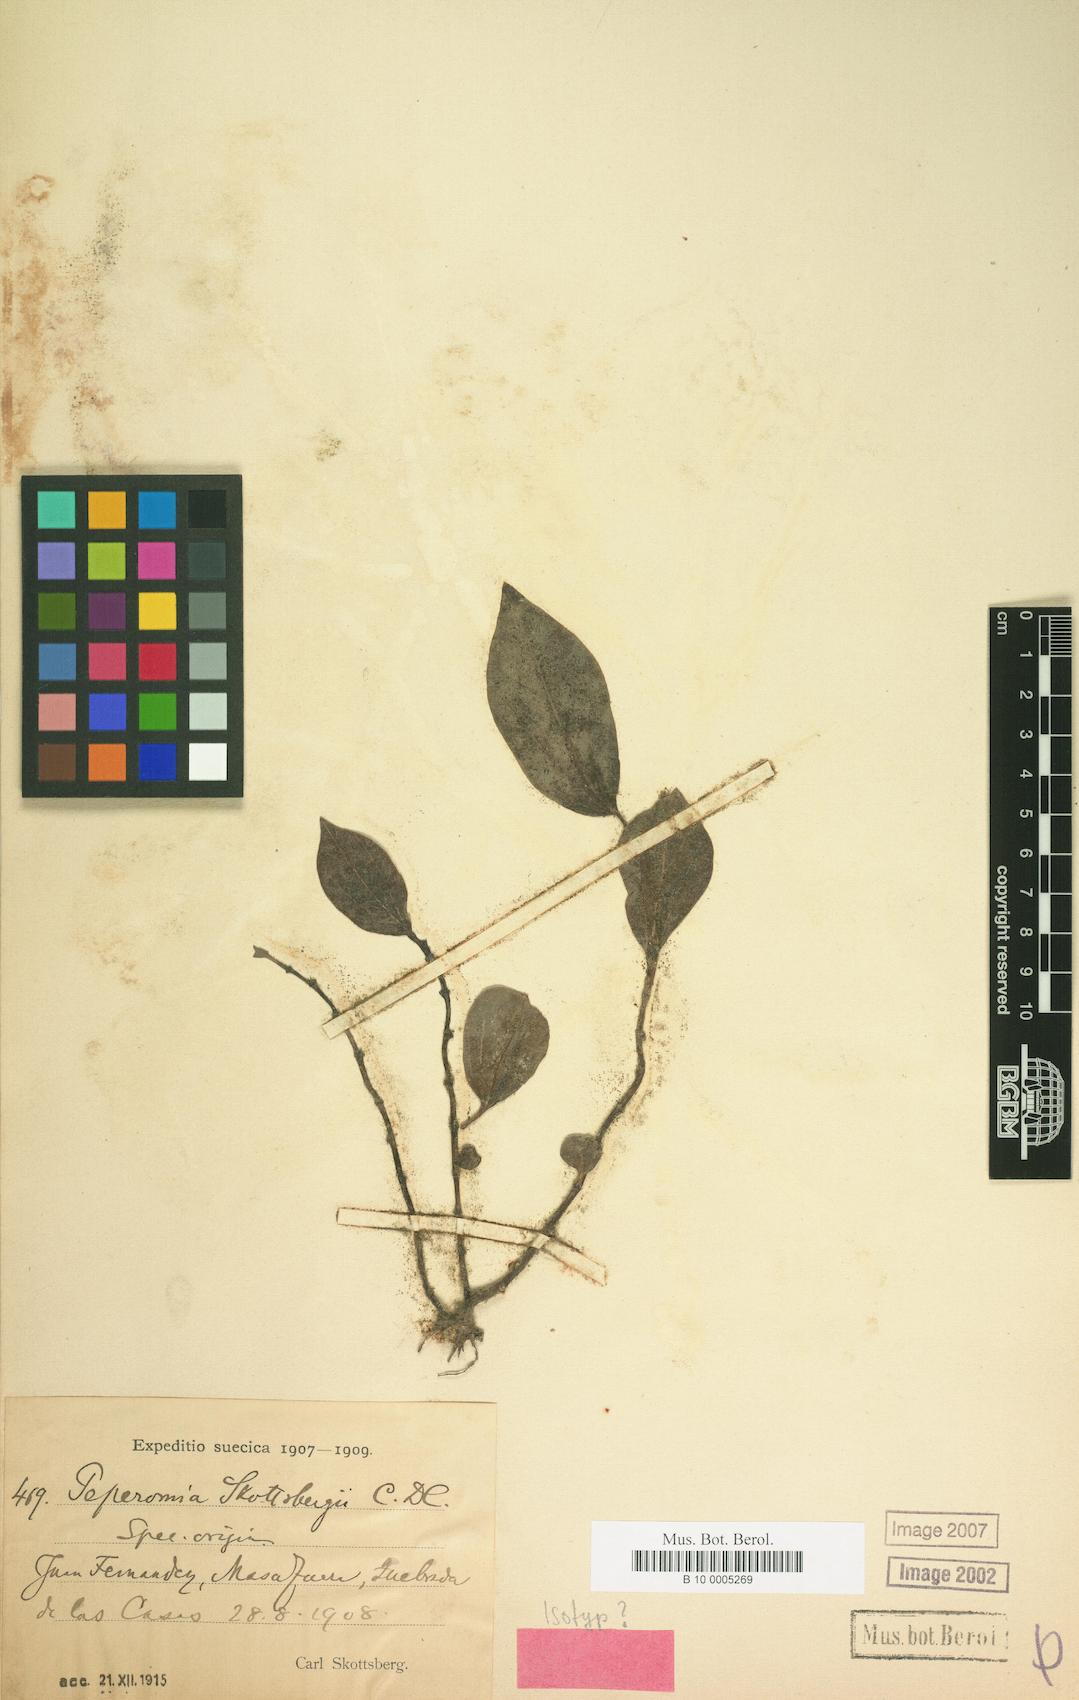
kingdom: Plantae
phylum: Tracheophyta
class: Magnoliopsida
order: Piperales
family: Piperaceae
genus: Peperomia
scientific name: Peperomia skottsbergii
